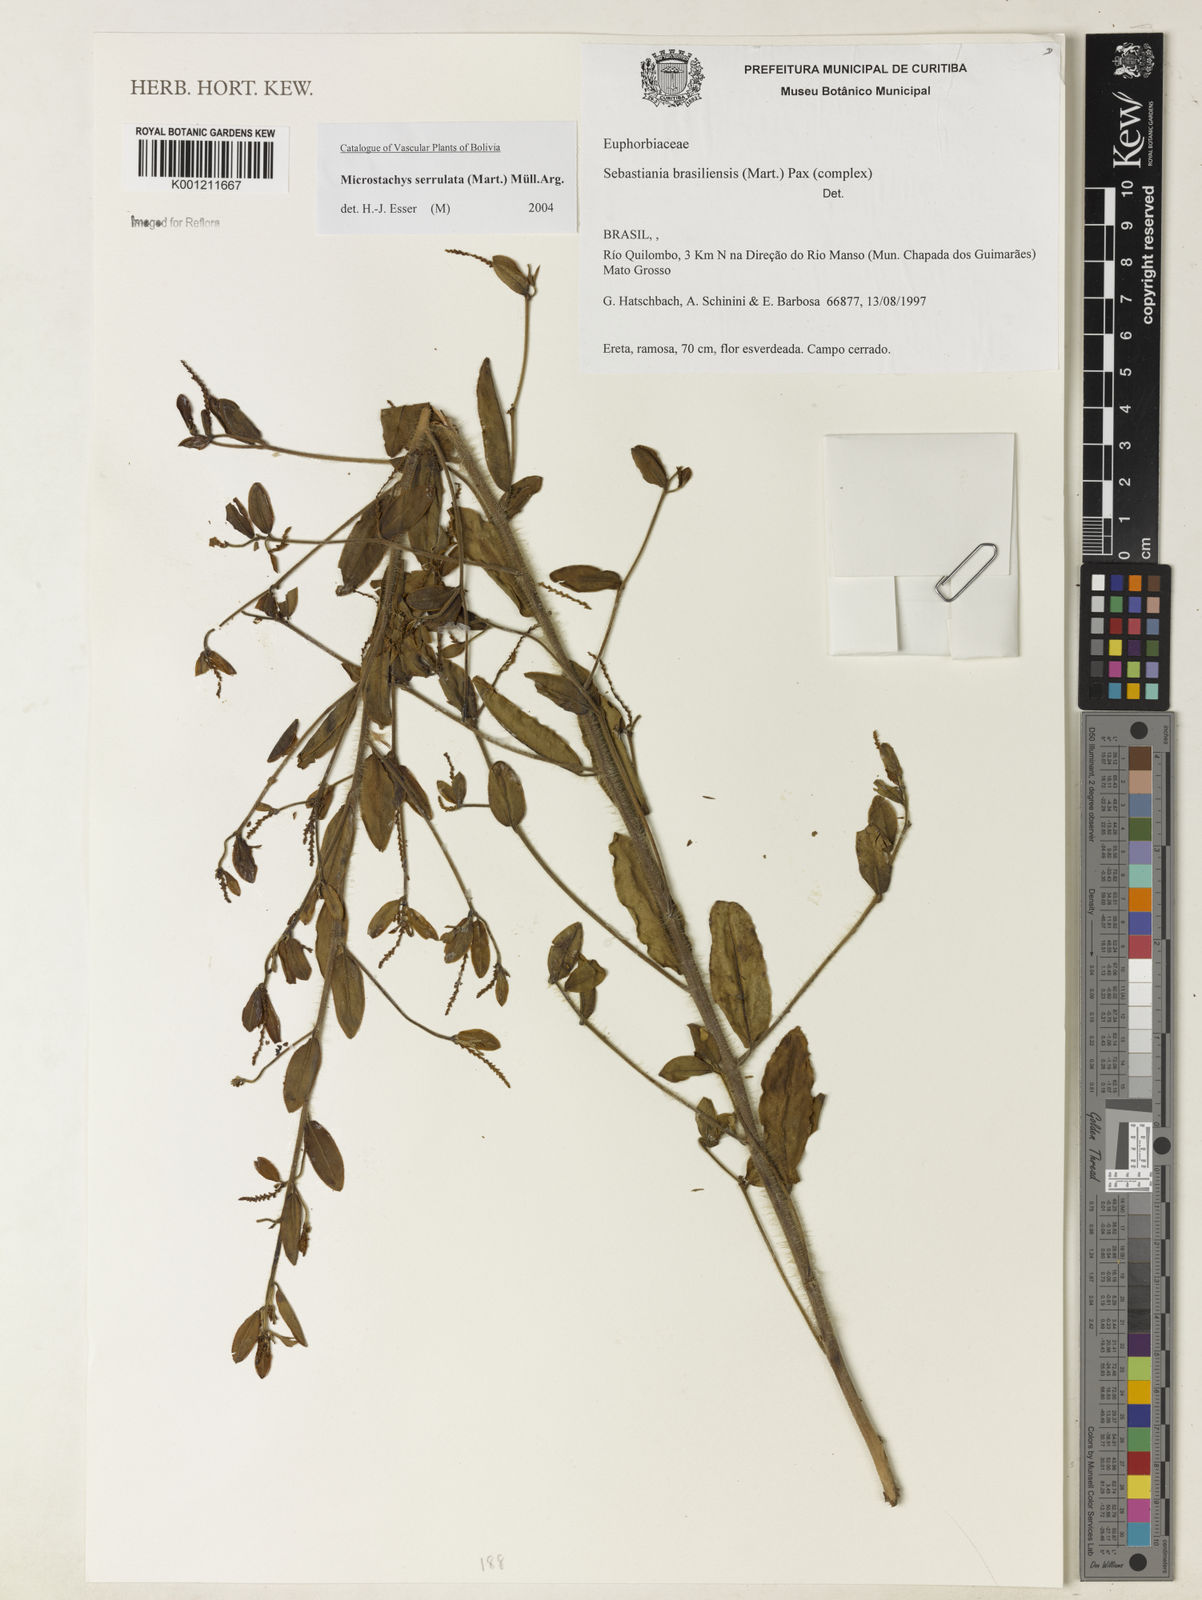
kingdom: Plantae
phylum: Tracheophyta
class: Magnoliopsida
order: Malpighiales
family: Euphorbiaceae
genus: Microstachys
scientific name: Microstachys
